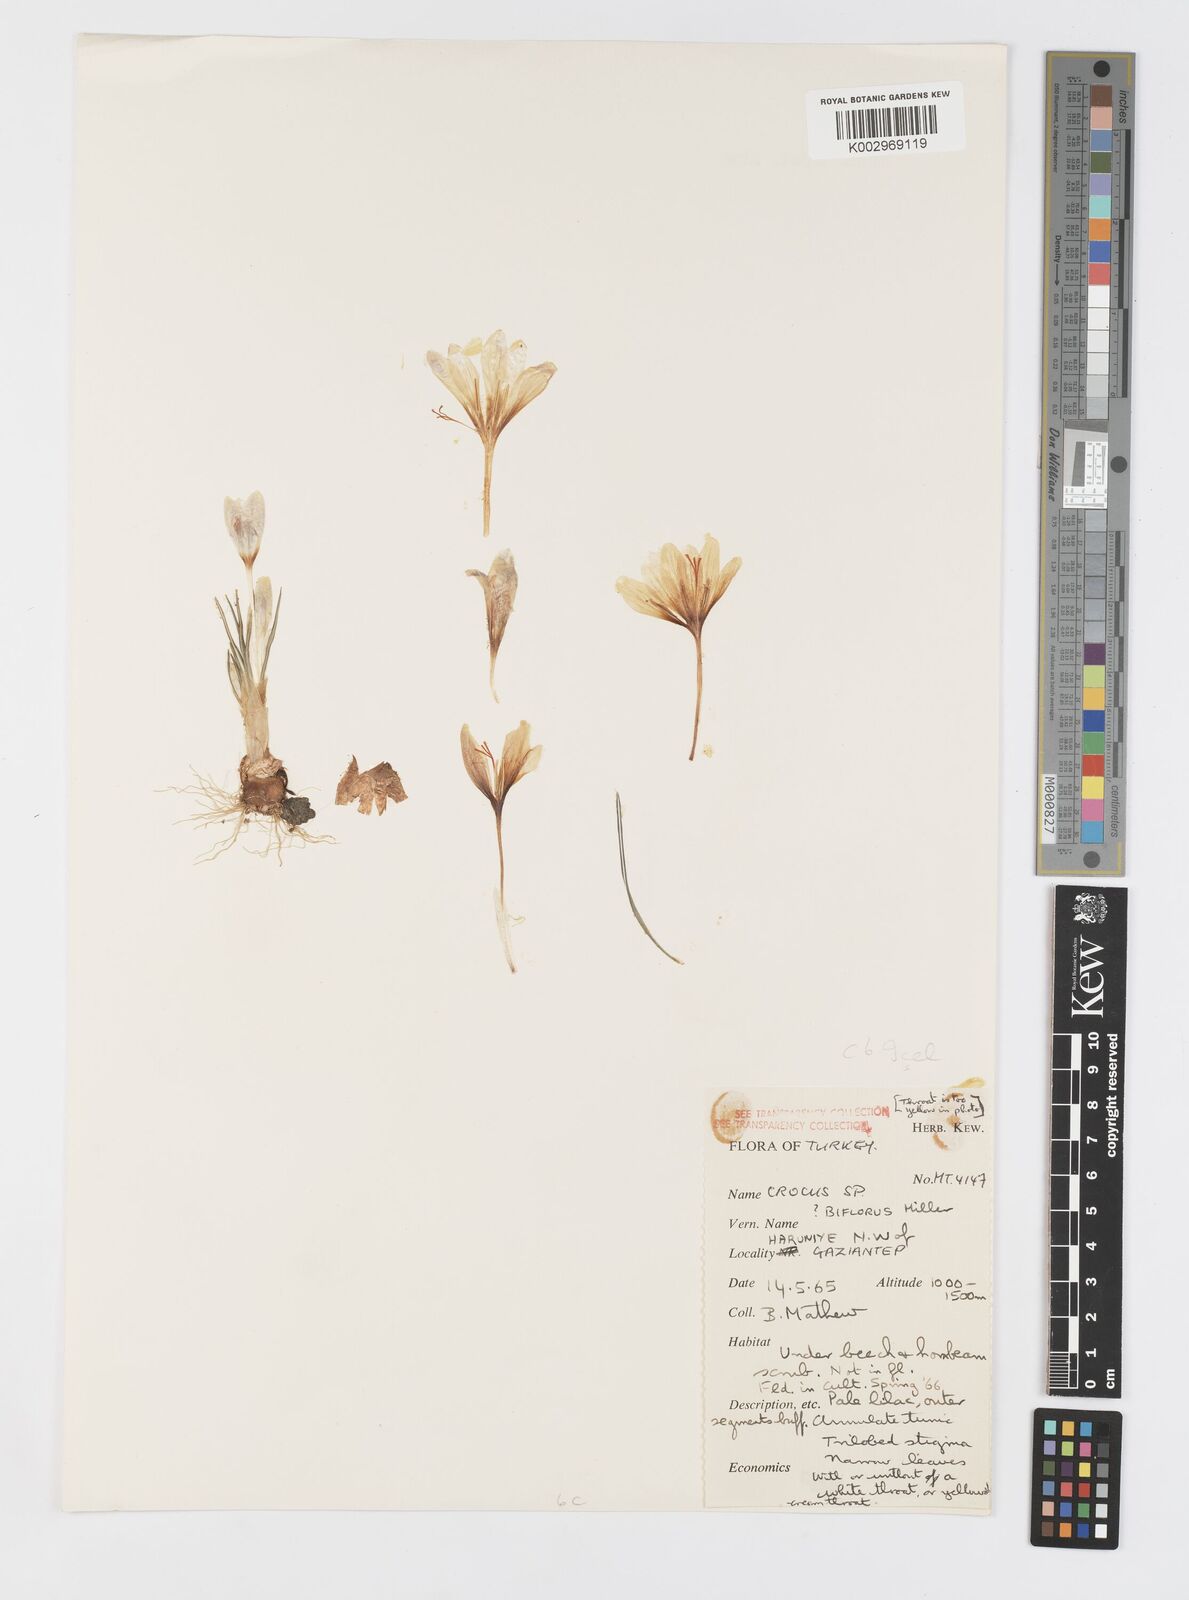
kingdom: Plantae
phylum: Tracheophyta
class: Liliopsida
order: Asparagales
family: Iridaceae
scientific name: Iridaceae
